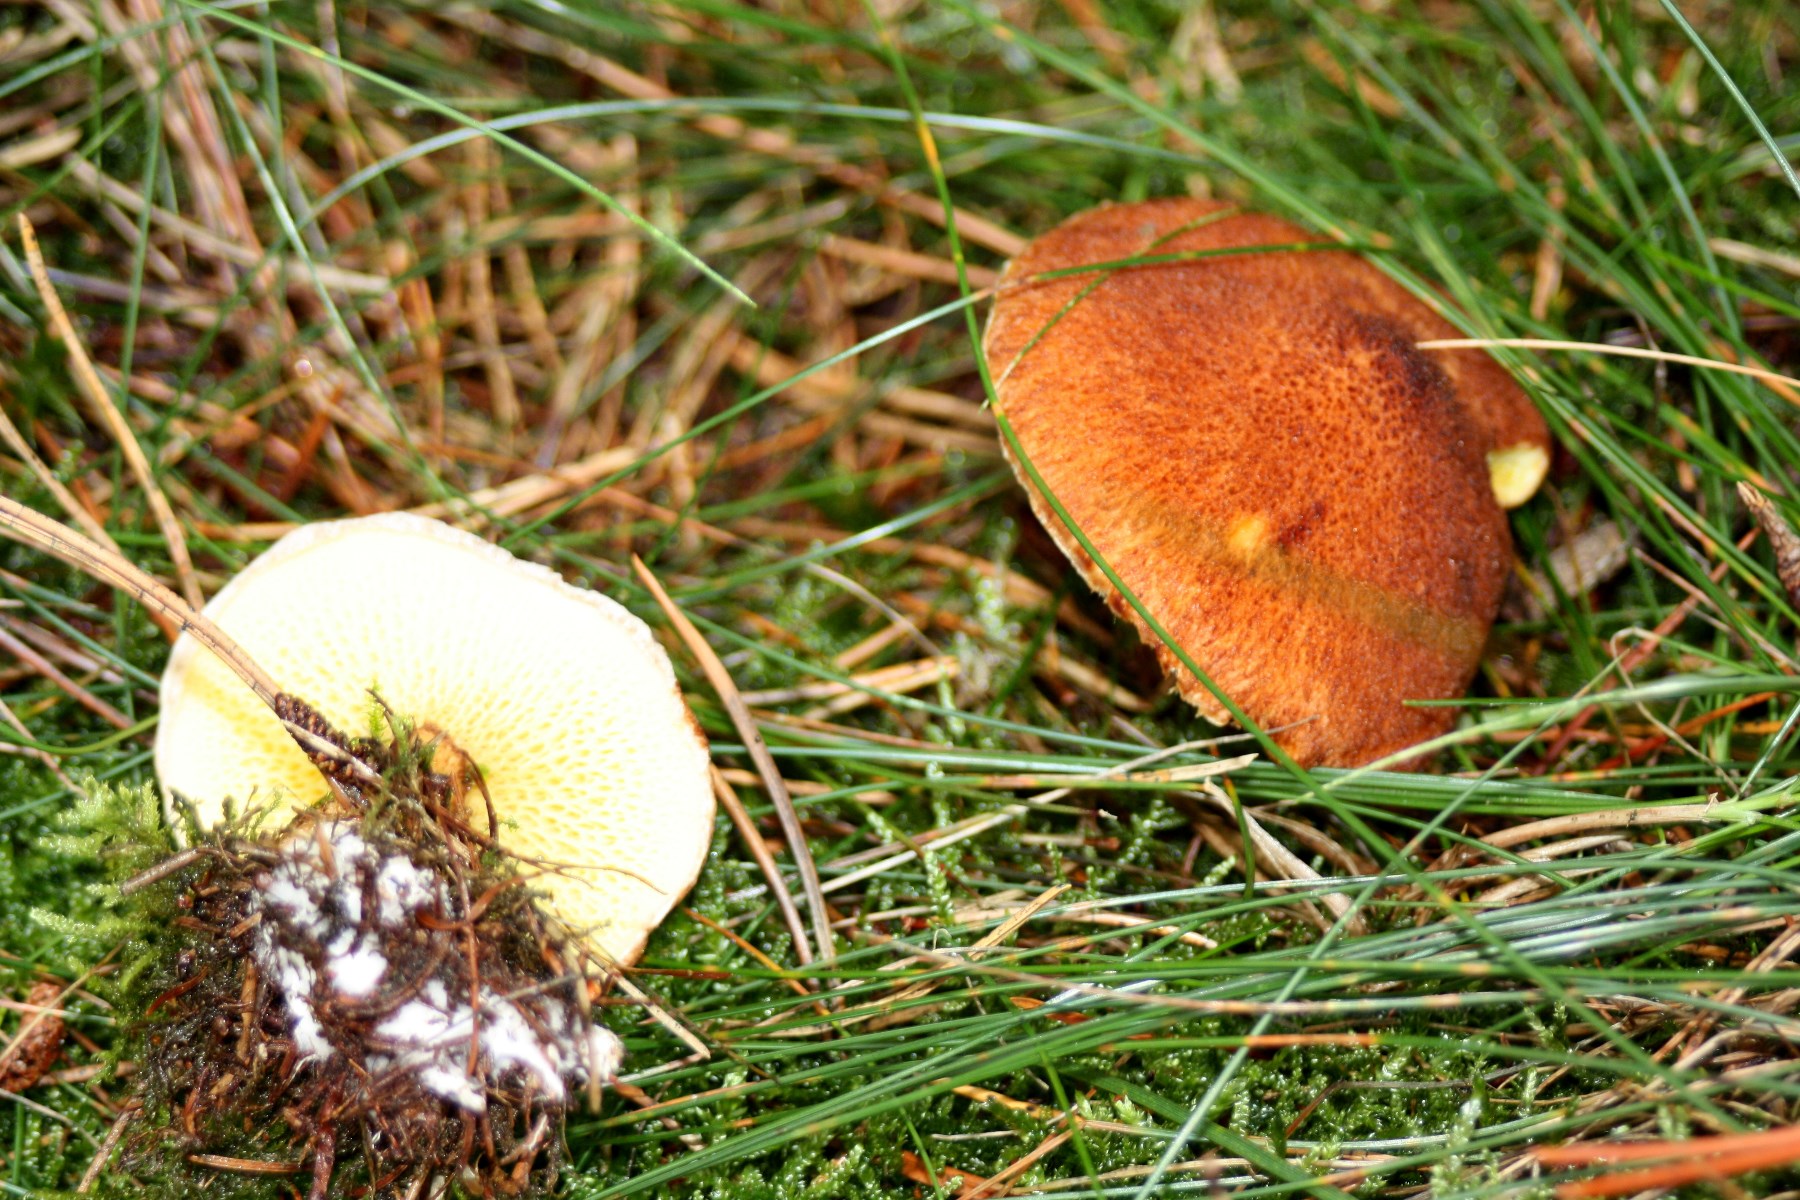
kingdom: Fungi
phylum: Basidiomycota
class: Agaricomycetes
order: Boletales
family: Suillaceae
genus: Suillus
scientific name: Suillus cavipes
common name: hulstokket slimrørhat
